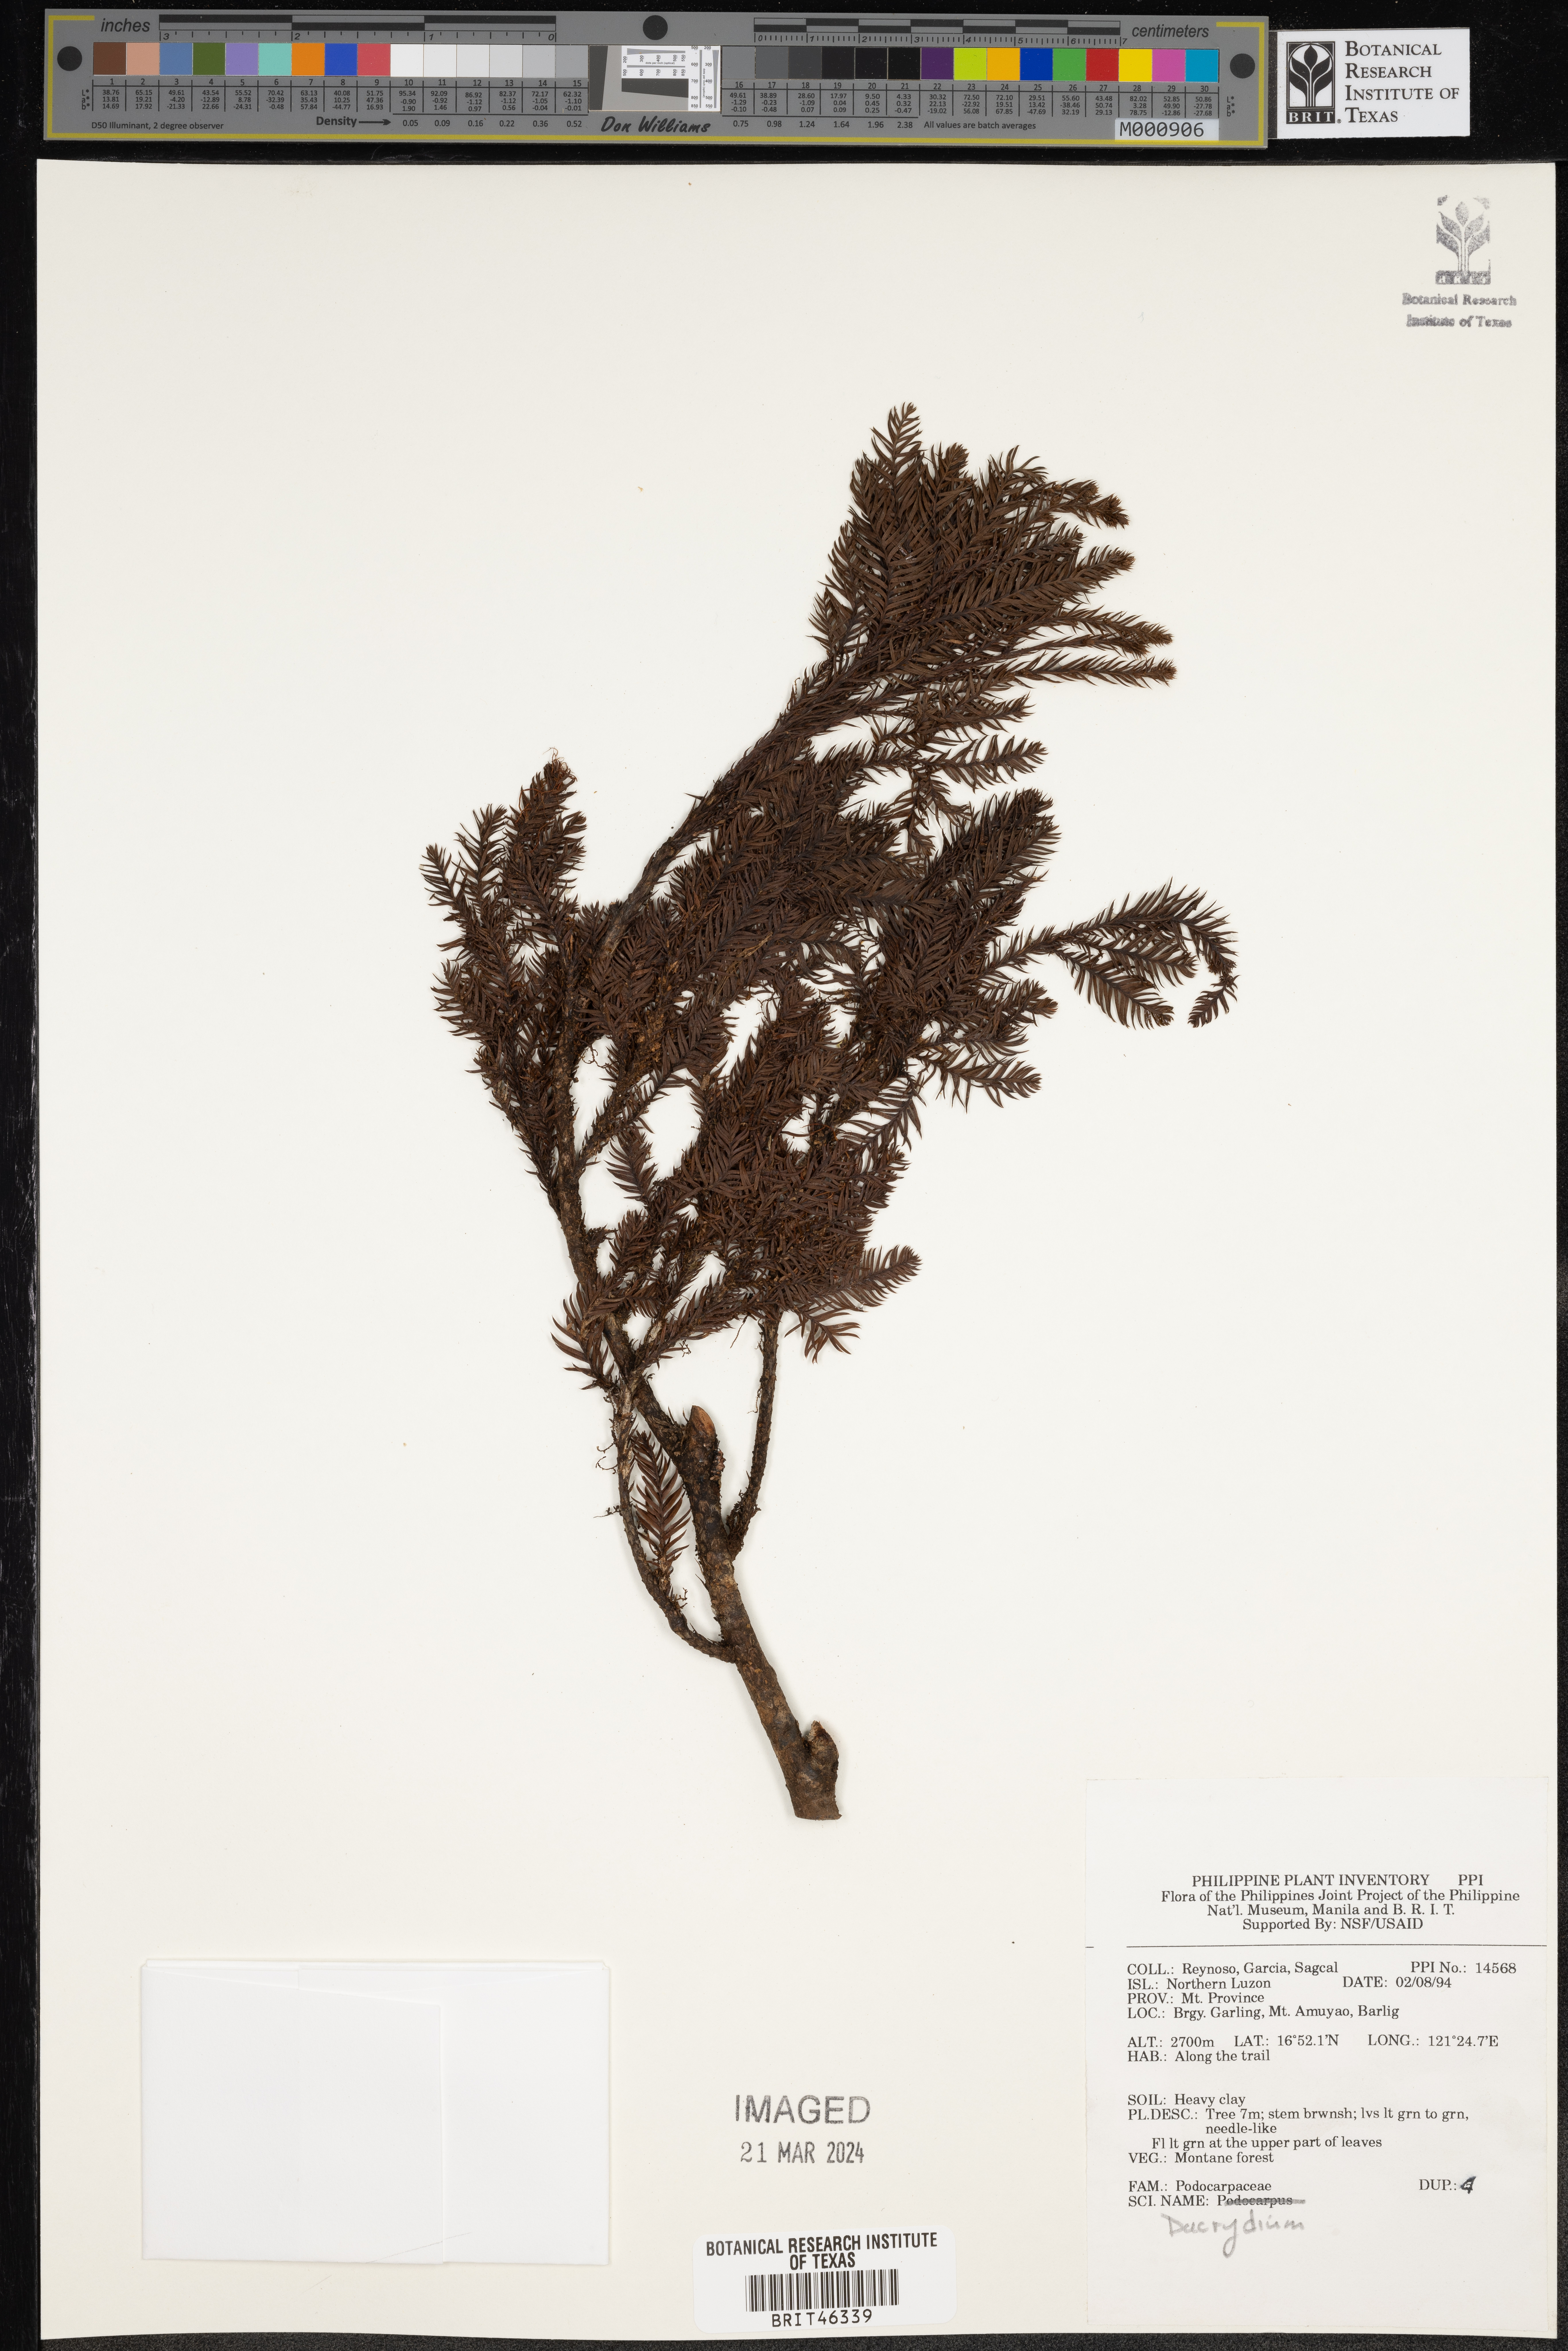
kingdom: Plantae
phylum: Tracheophyta
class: Pinopsida
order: Pinales
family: Podocarpaceae
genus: Dacrydium
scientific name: Dacrydium
